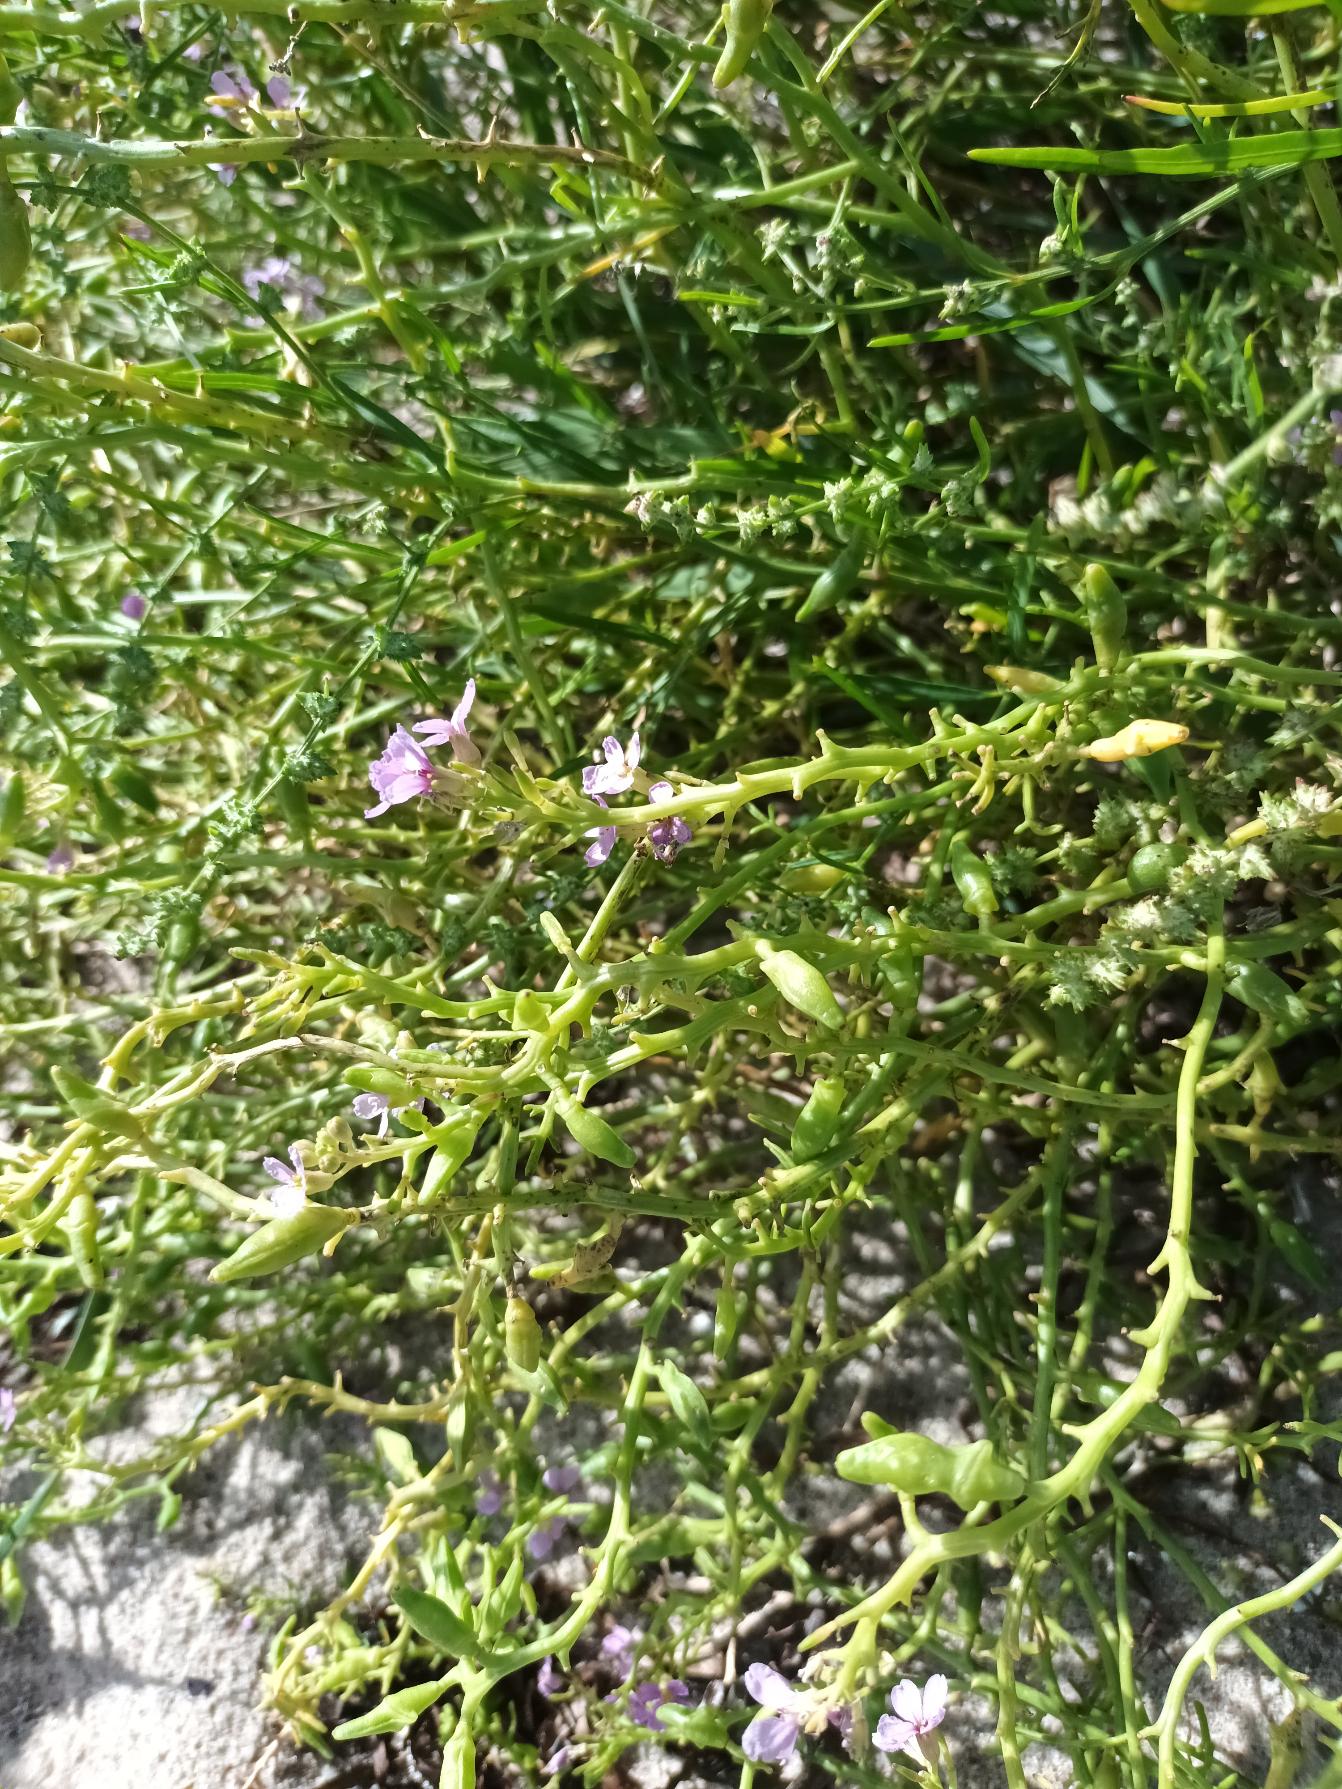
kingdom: Plantae
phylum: Tracheophyta
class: Magnoliopsida
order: Brassicales
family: Brassicaceae
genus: Cakile
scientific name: Cakile maritima
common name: Strandsennep
